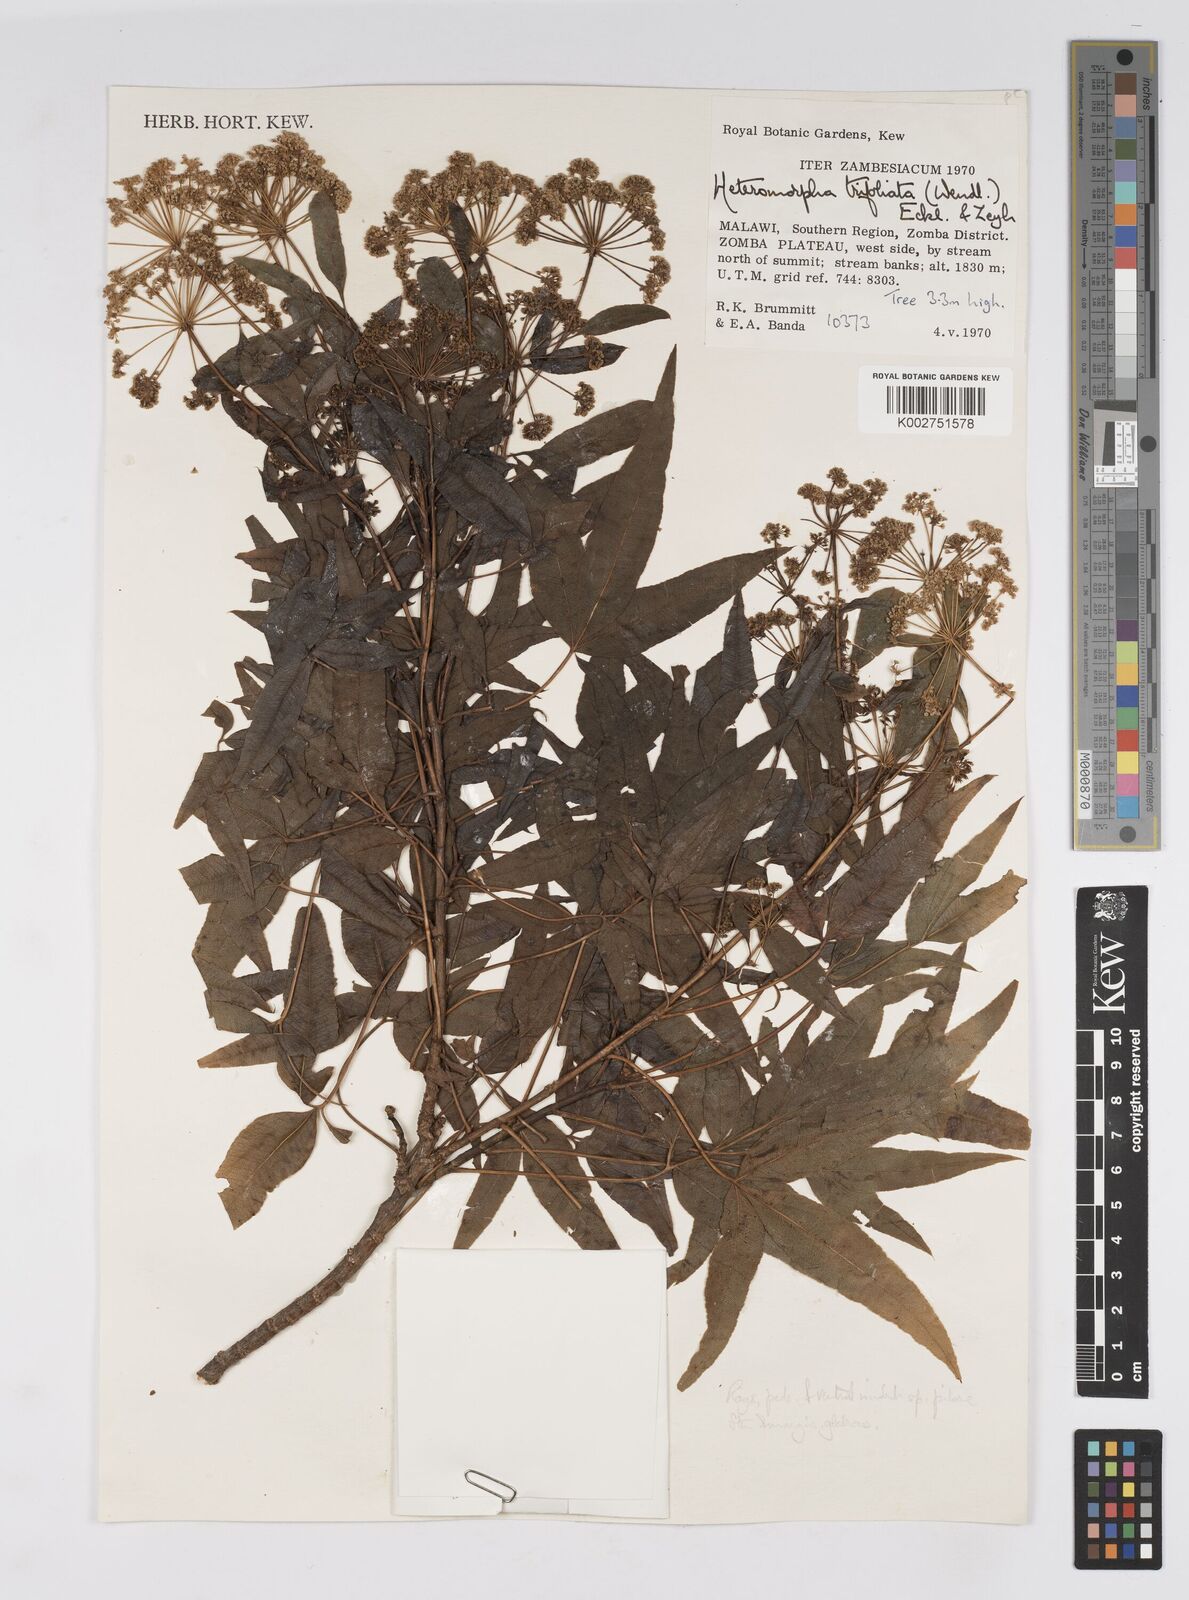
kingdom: Plantae
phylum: Tracheophyta
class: Magnoliopsida
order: Apiales
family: Apiaceae
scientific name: Apiaceae
